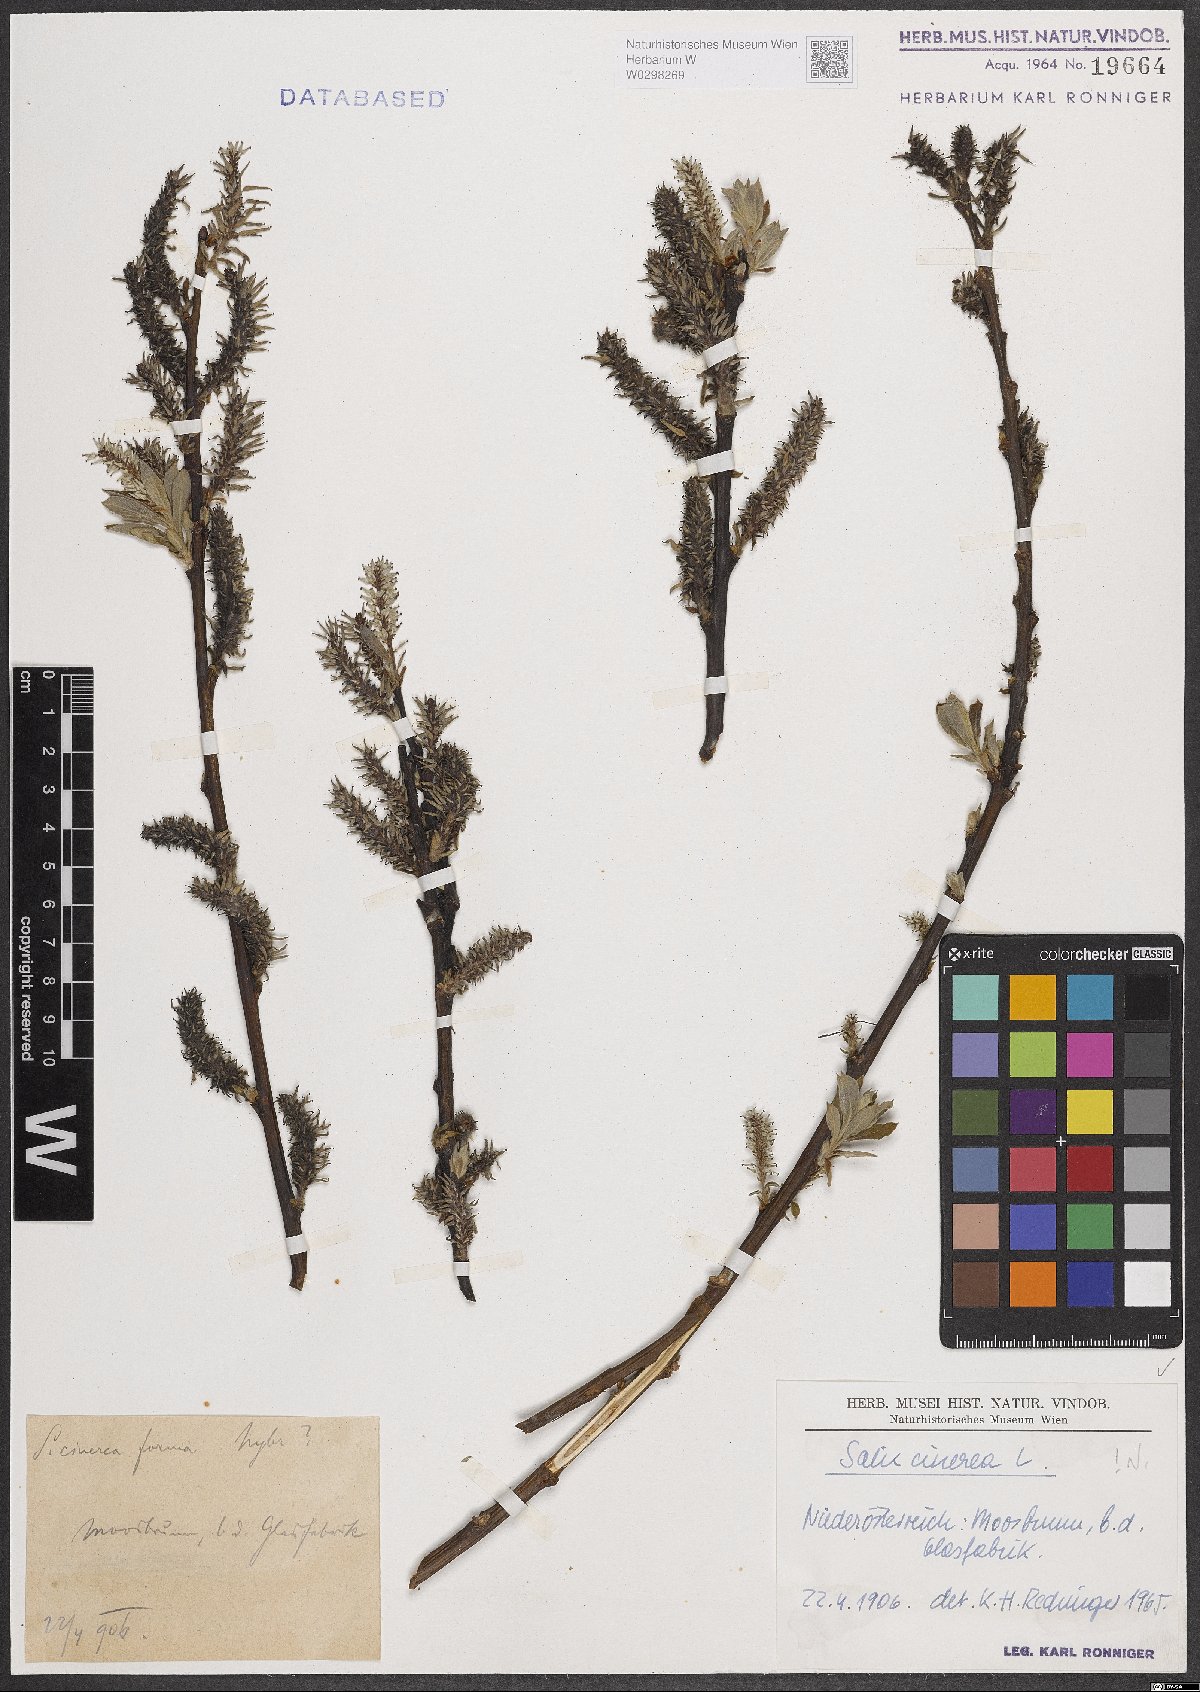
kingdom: Plantae
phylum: Tracheophyta
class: Magnoliopsida
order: Malpighiales
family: Salicaceae
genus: Salix
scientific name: Salix cinerea
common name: Common sallow
